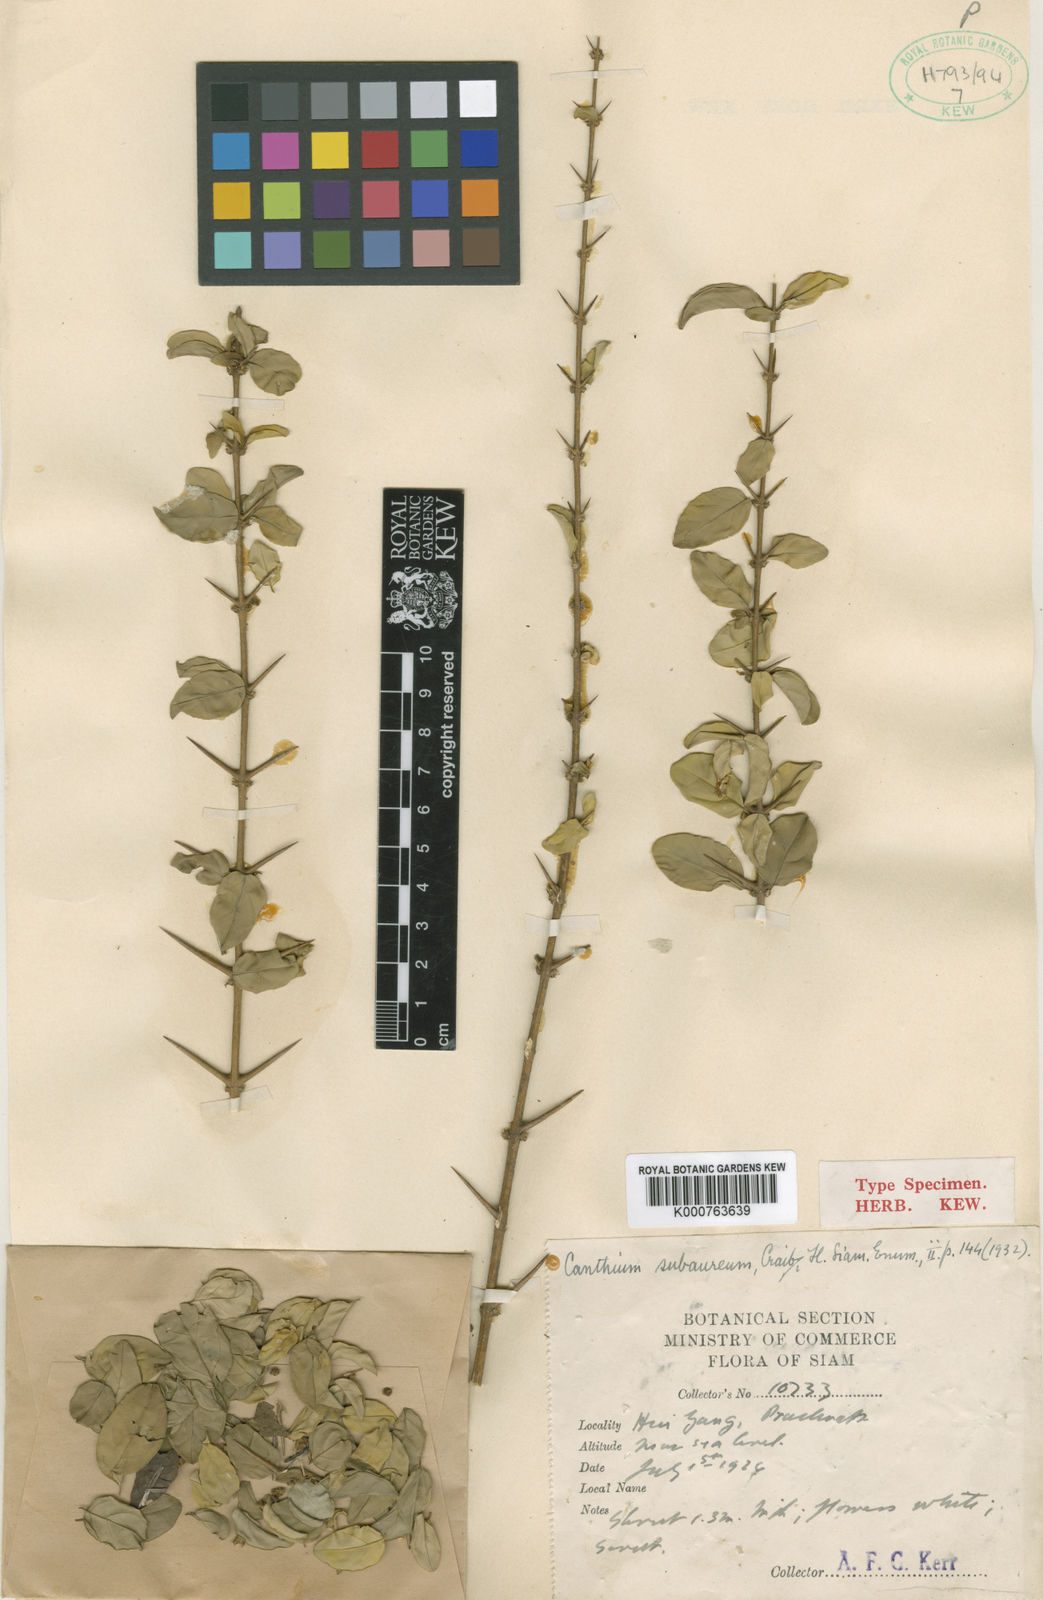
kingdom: Plantae
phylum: Tracheophyta
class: Magnoliopsida
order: Gentianales
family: Rubiaceae
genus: Canthium
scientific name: Canthium subaureum
